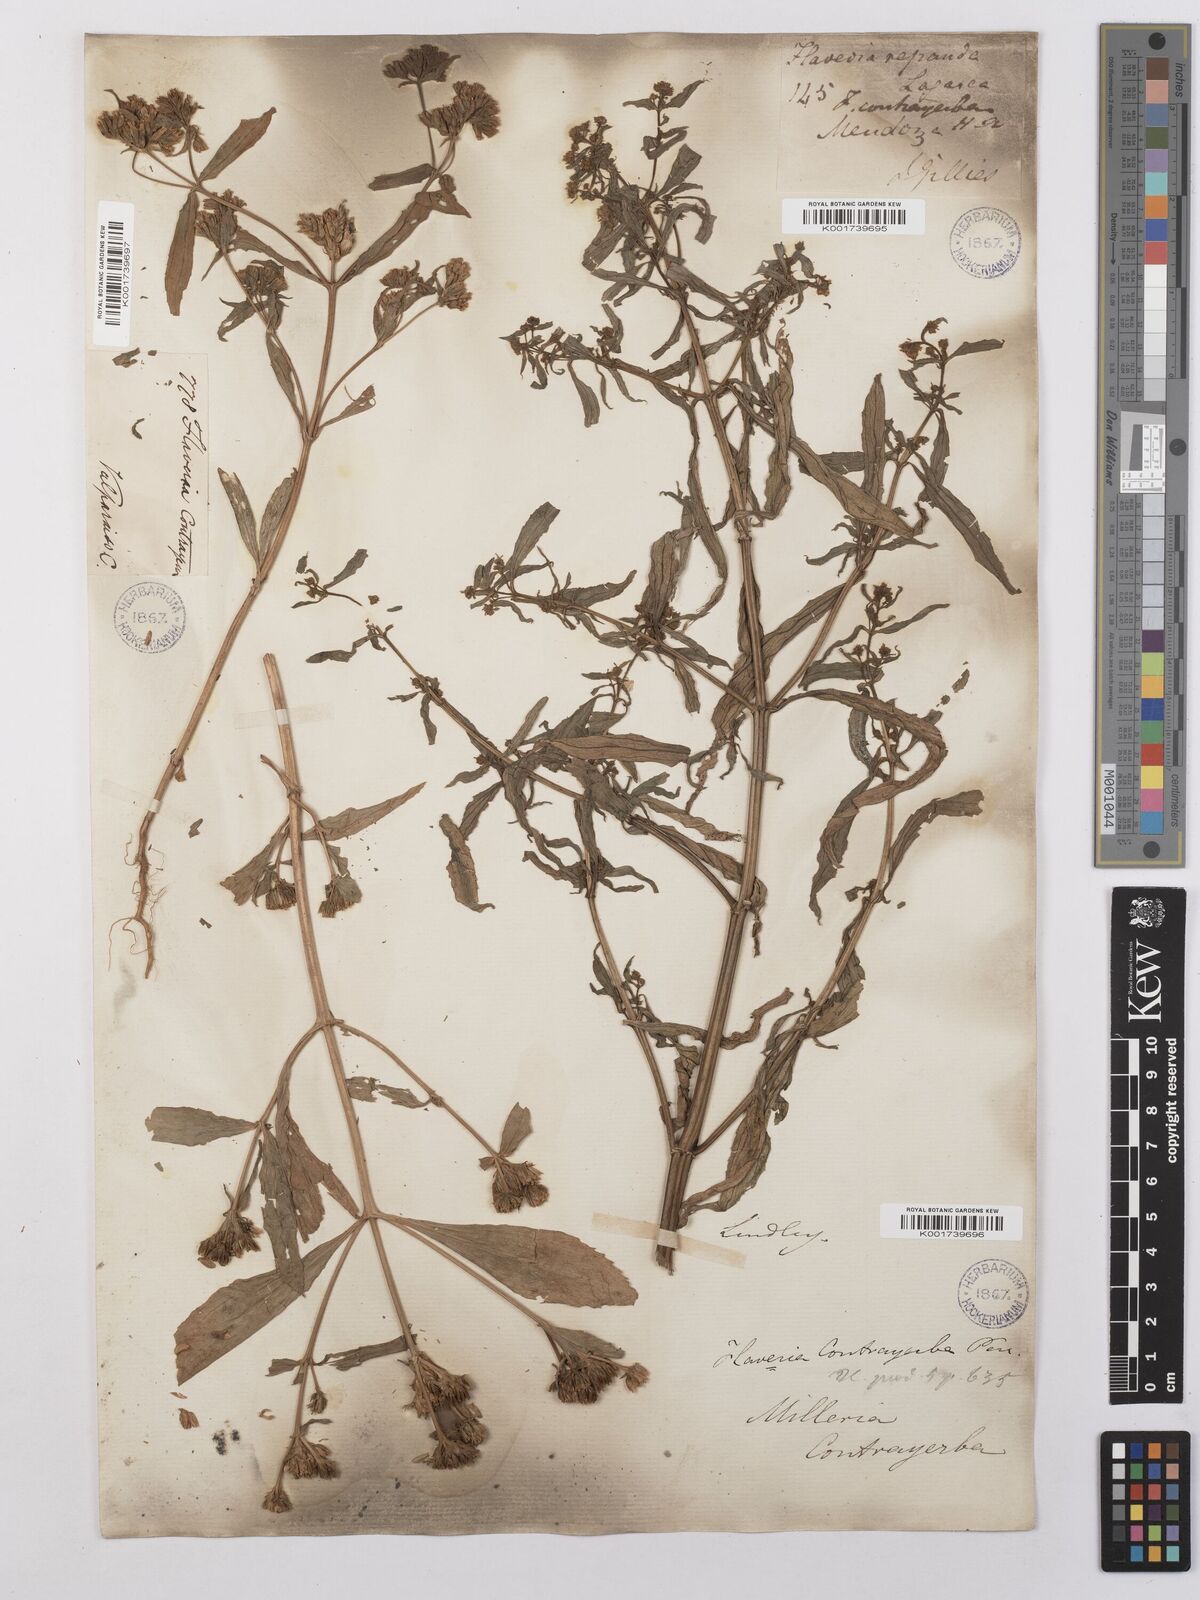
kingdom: Plantae
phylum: Tracheophyta
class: Magnoliopsida
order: Asterales
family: Asteraceae
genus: Flaveria
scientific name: Flaveria bidentis
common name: Coastal plain yellowtops
